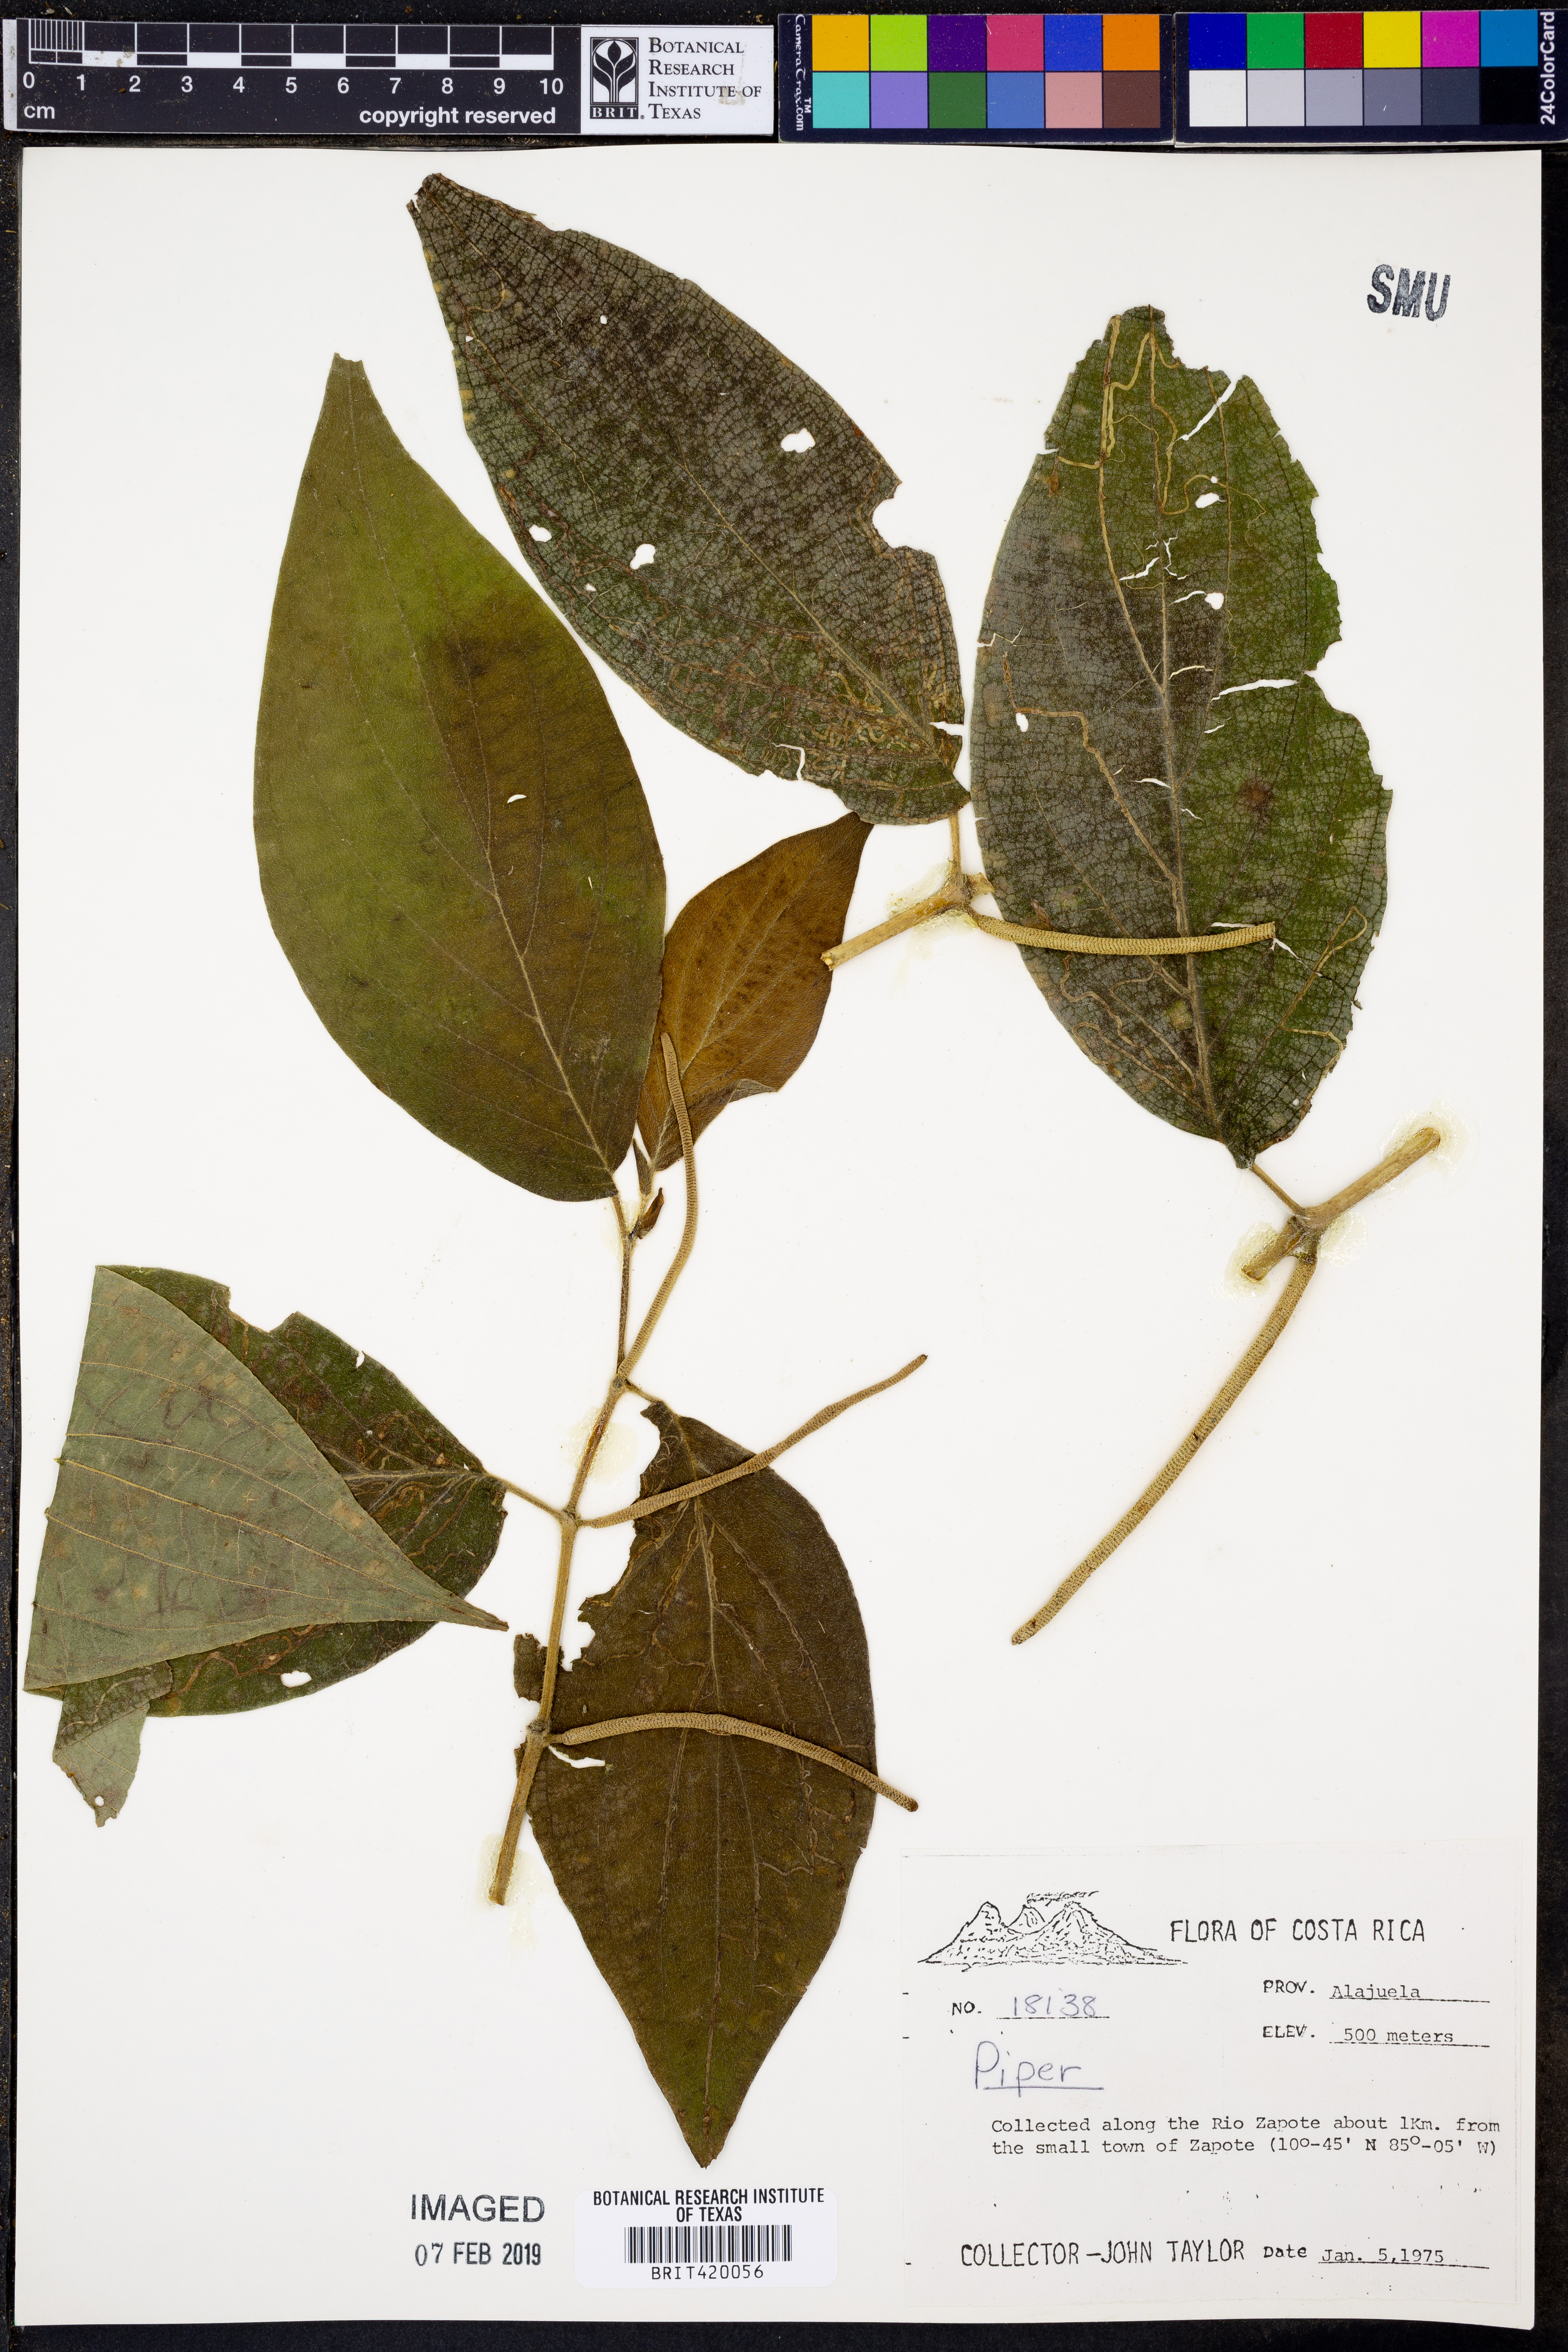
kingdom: Plantae
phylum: Tracheophyta
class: Magnoliopsida
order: Piperales
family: Piperaceae
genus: Piper
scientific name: Piper
